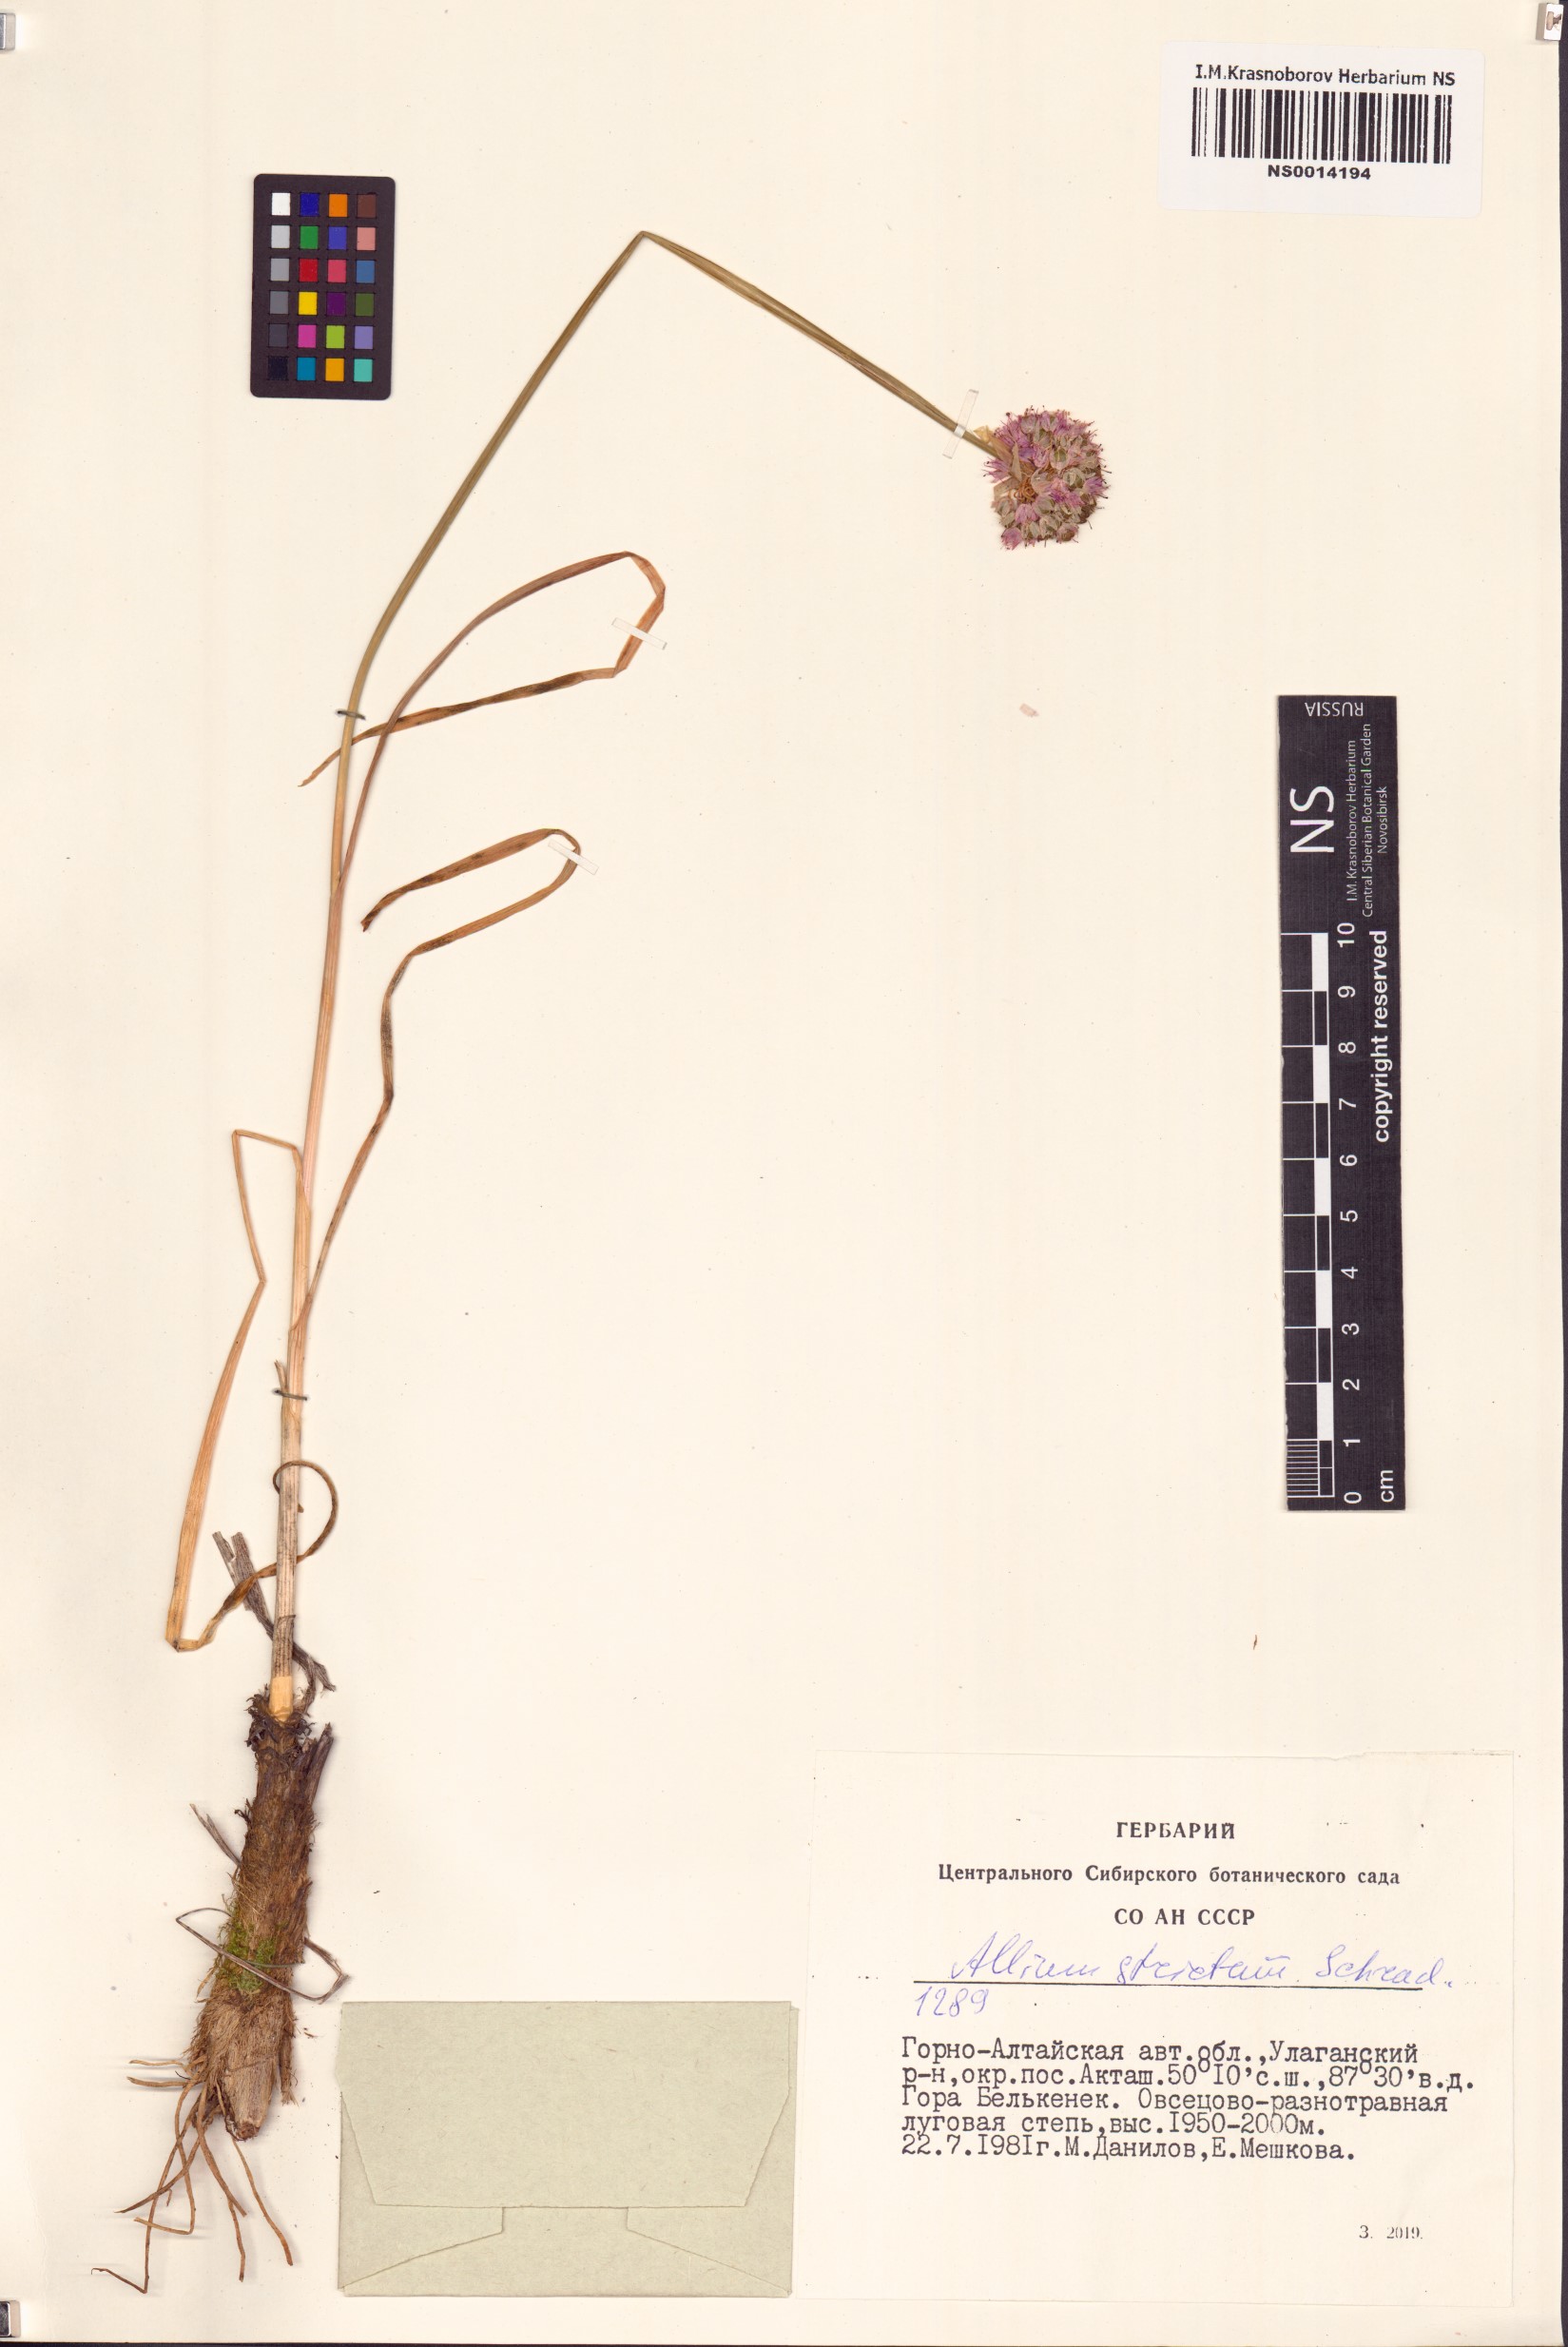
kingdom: Plantae
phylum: Tracheophyta
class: Liliopsida
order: Asparagales
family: Amaryllidaceae
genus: Allium
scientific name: Allium strictum
